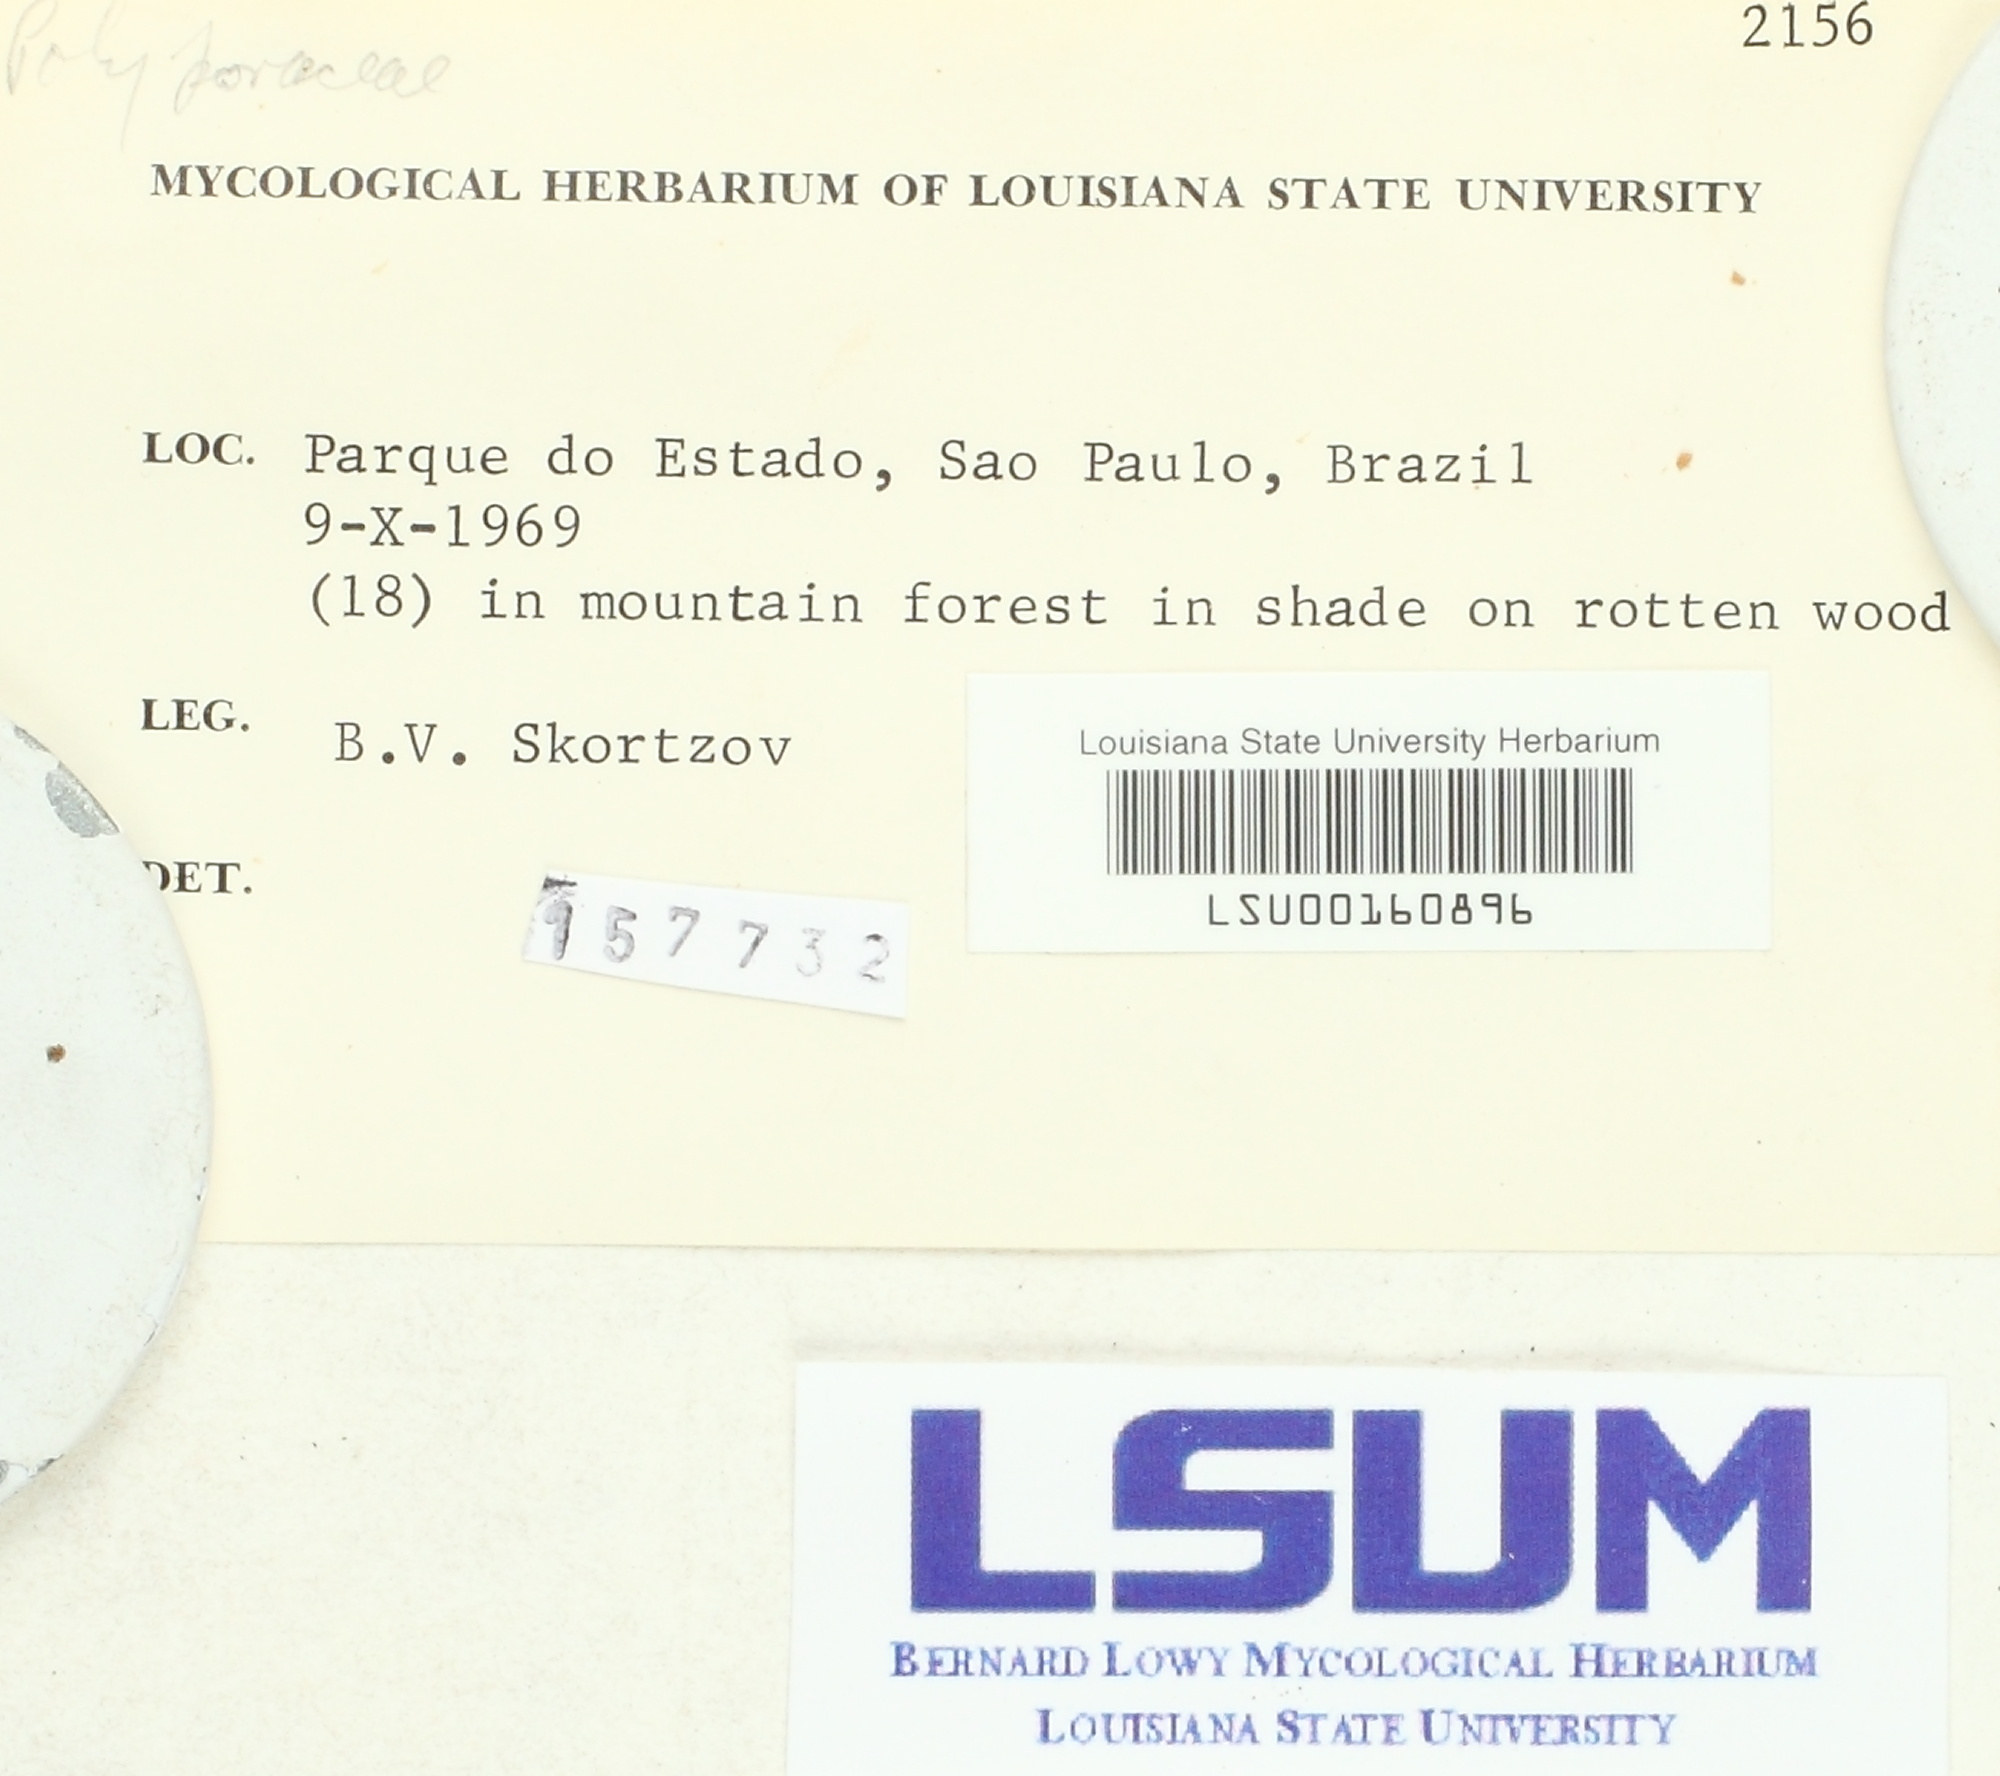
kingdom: Fungi
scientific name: Fungi
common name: Fungi
